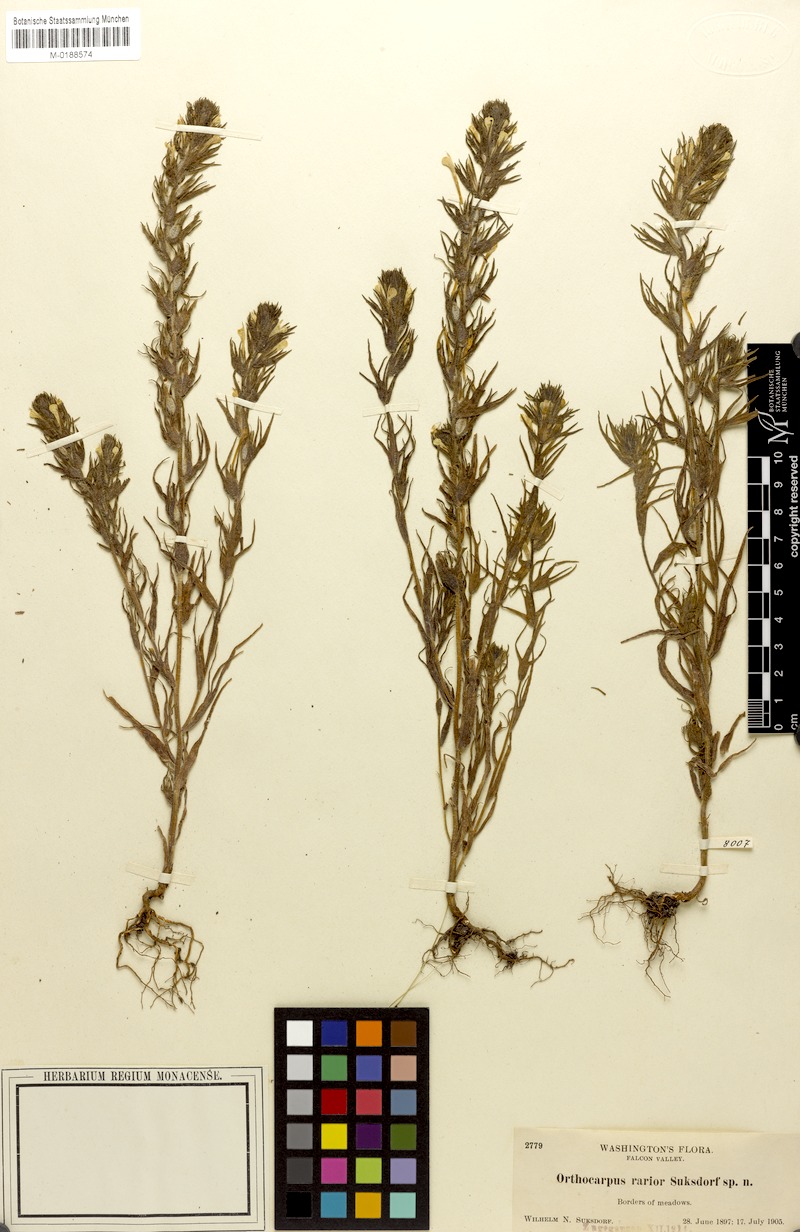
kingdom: Plantae
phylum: Tracheophyta
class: Magnoliopsida
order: Lamiales
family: Orobanchaceae
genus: Castilleja
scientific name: Castilleja tenuis
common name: Hairy indian paintbrush
